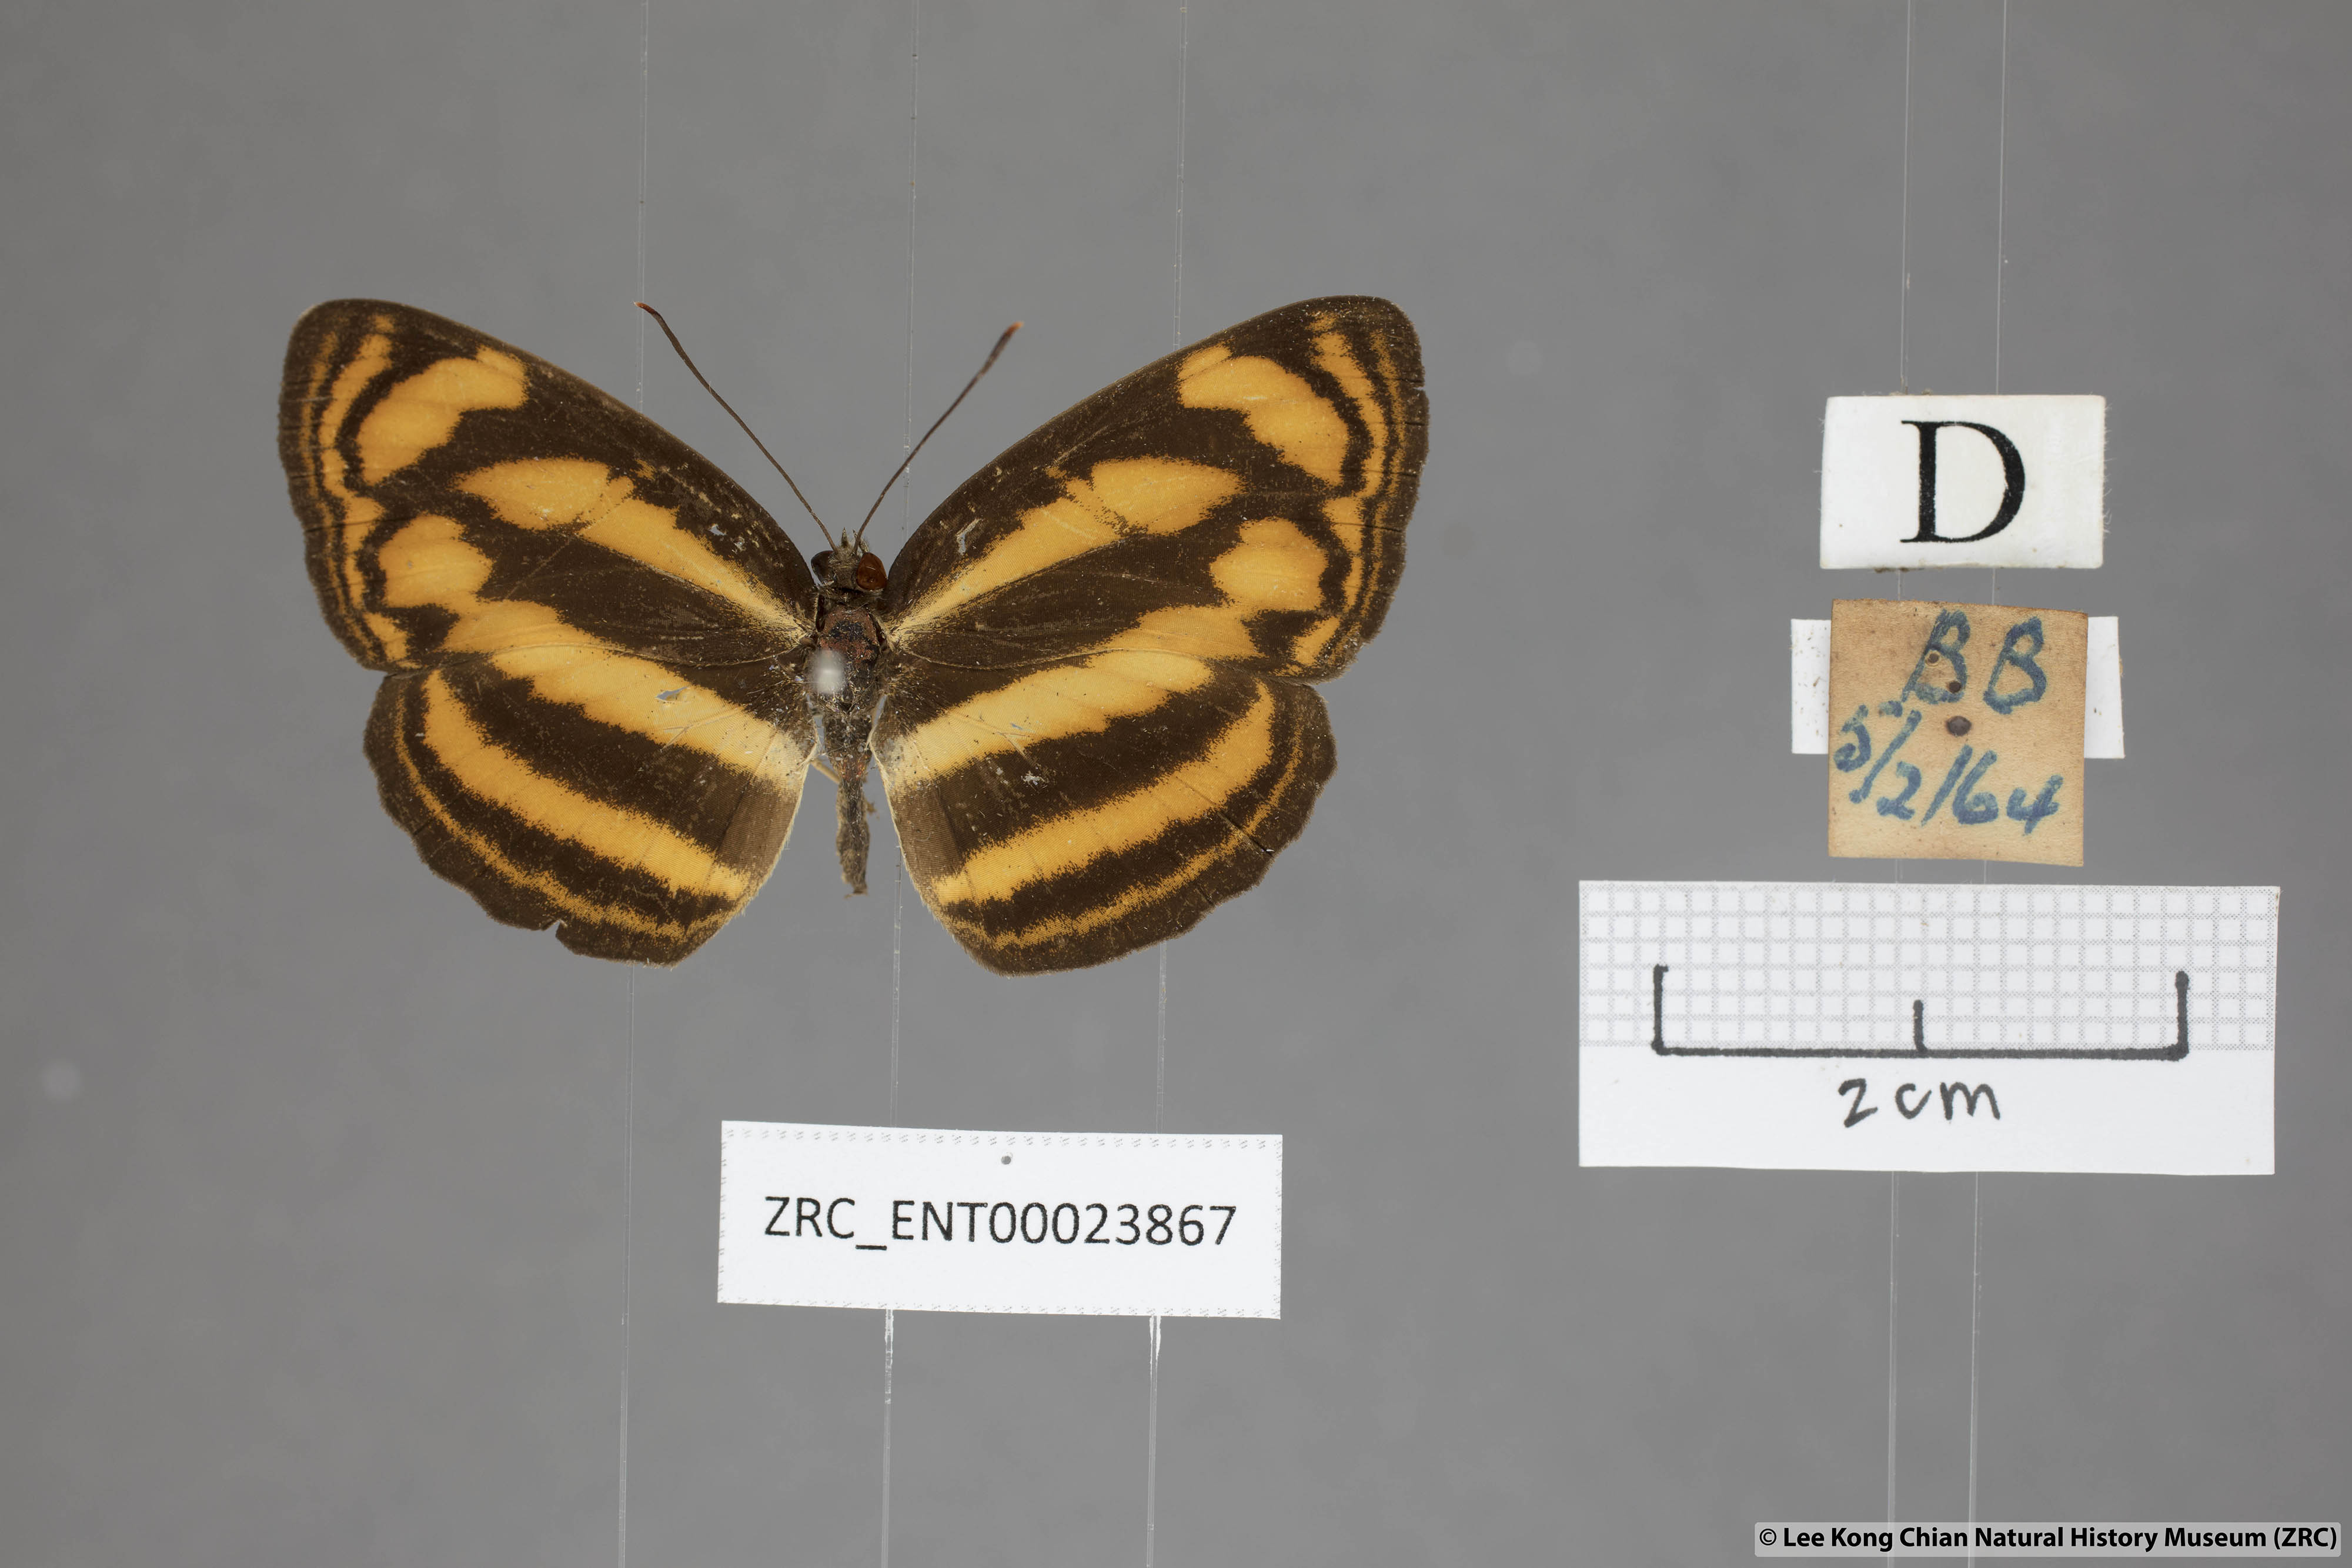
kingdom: Animalia
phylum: Arthropoda
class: Insecta
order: Lepidoptera
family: Nymphalidae
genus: Lasippa
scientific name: Lasippa tiga
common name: Malayan lascar
